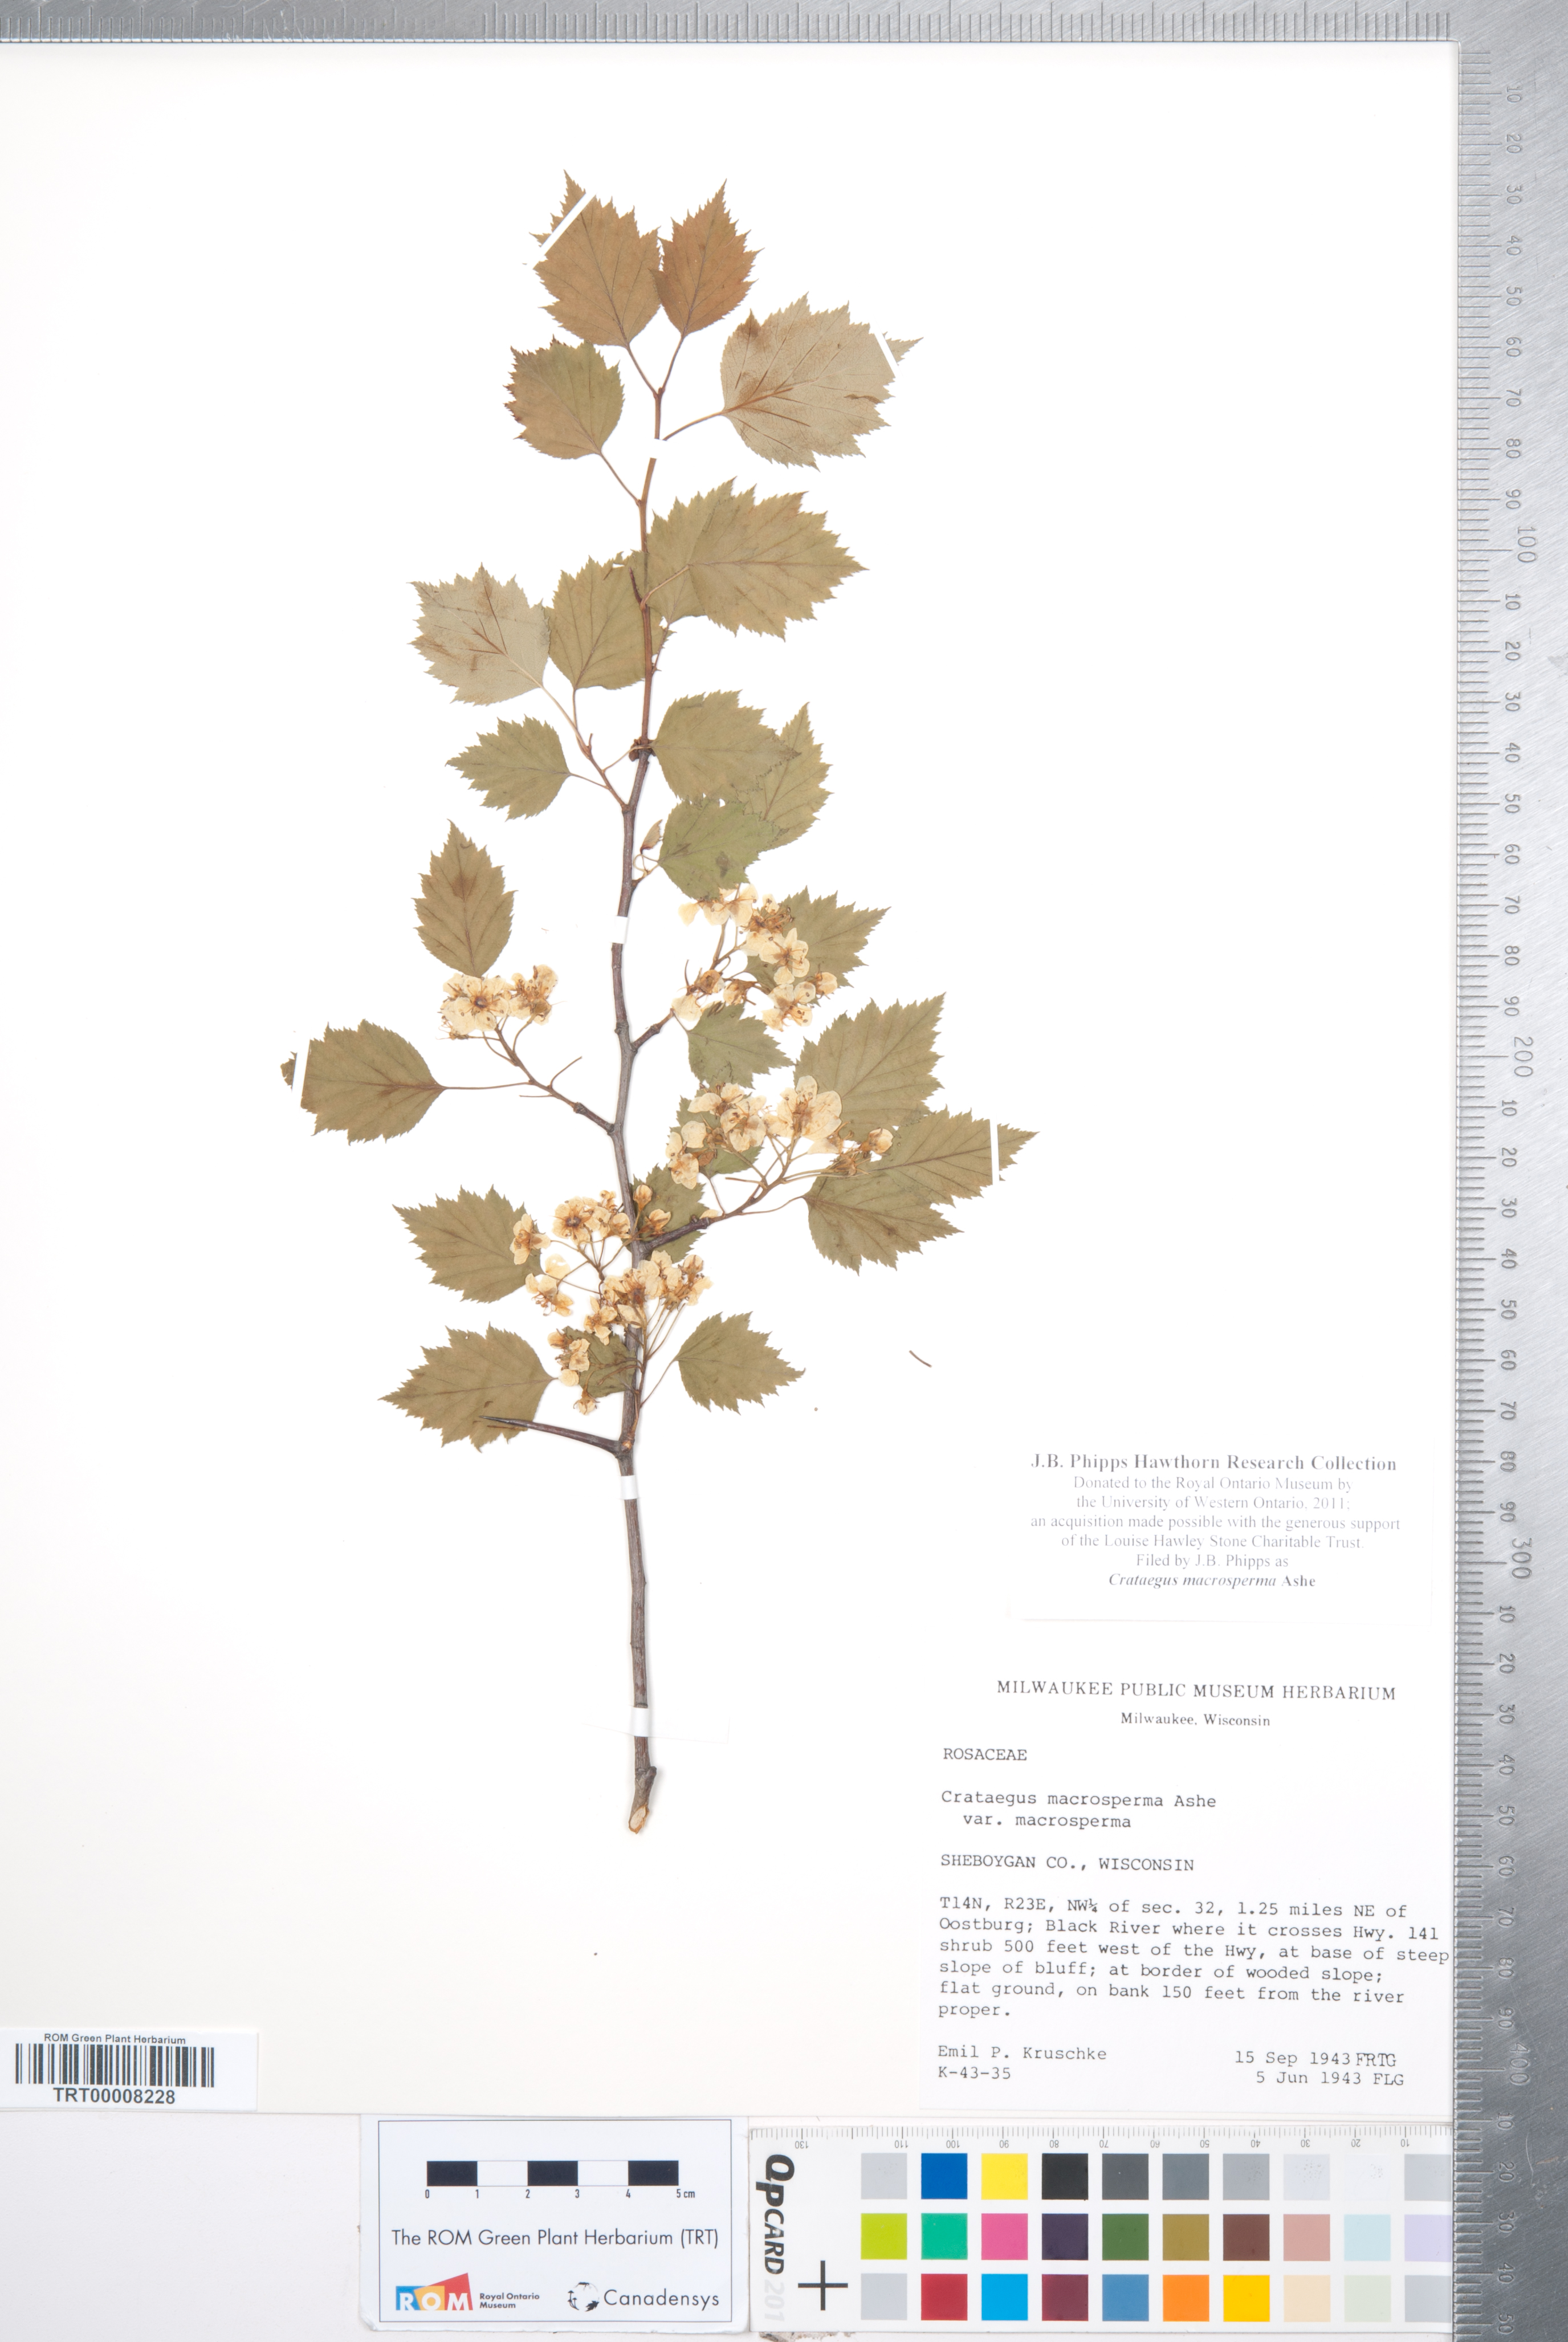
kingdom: Plantae
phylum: Tracheophyta
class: Magnoliopsida
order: Rosales
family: Rosaceae
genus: Crataegus
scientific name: Crataegus macrosperma
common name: Variable hawthorn
